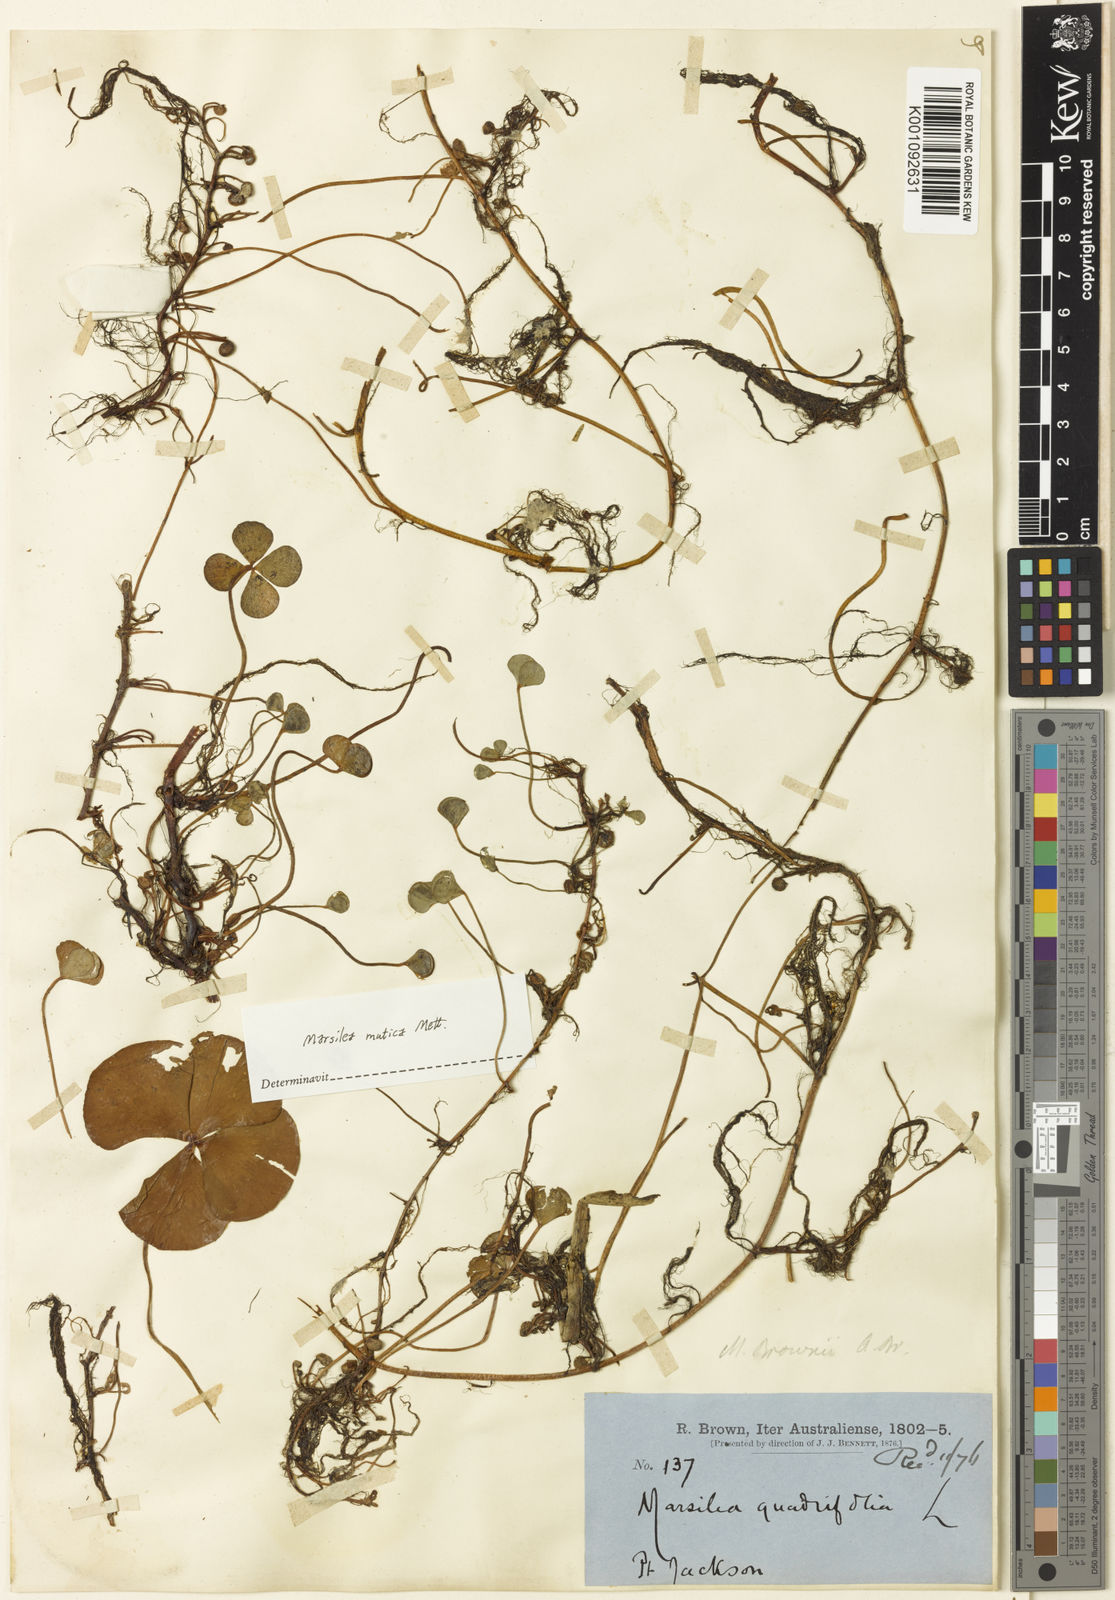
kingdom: Plantae
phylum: Tracheophyta
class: Polypodiopsida
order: Salviniales
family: Marsileaceae
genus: Marsilea
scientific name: Marsilea mutica
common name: Australian water-clover
